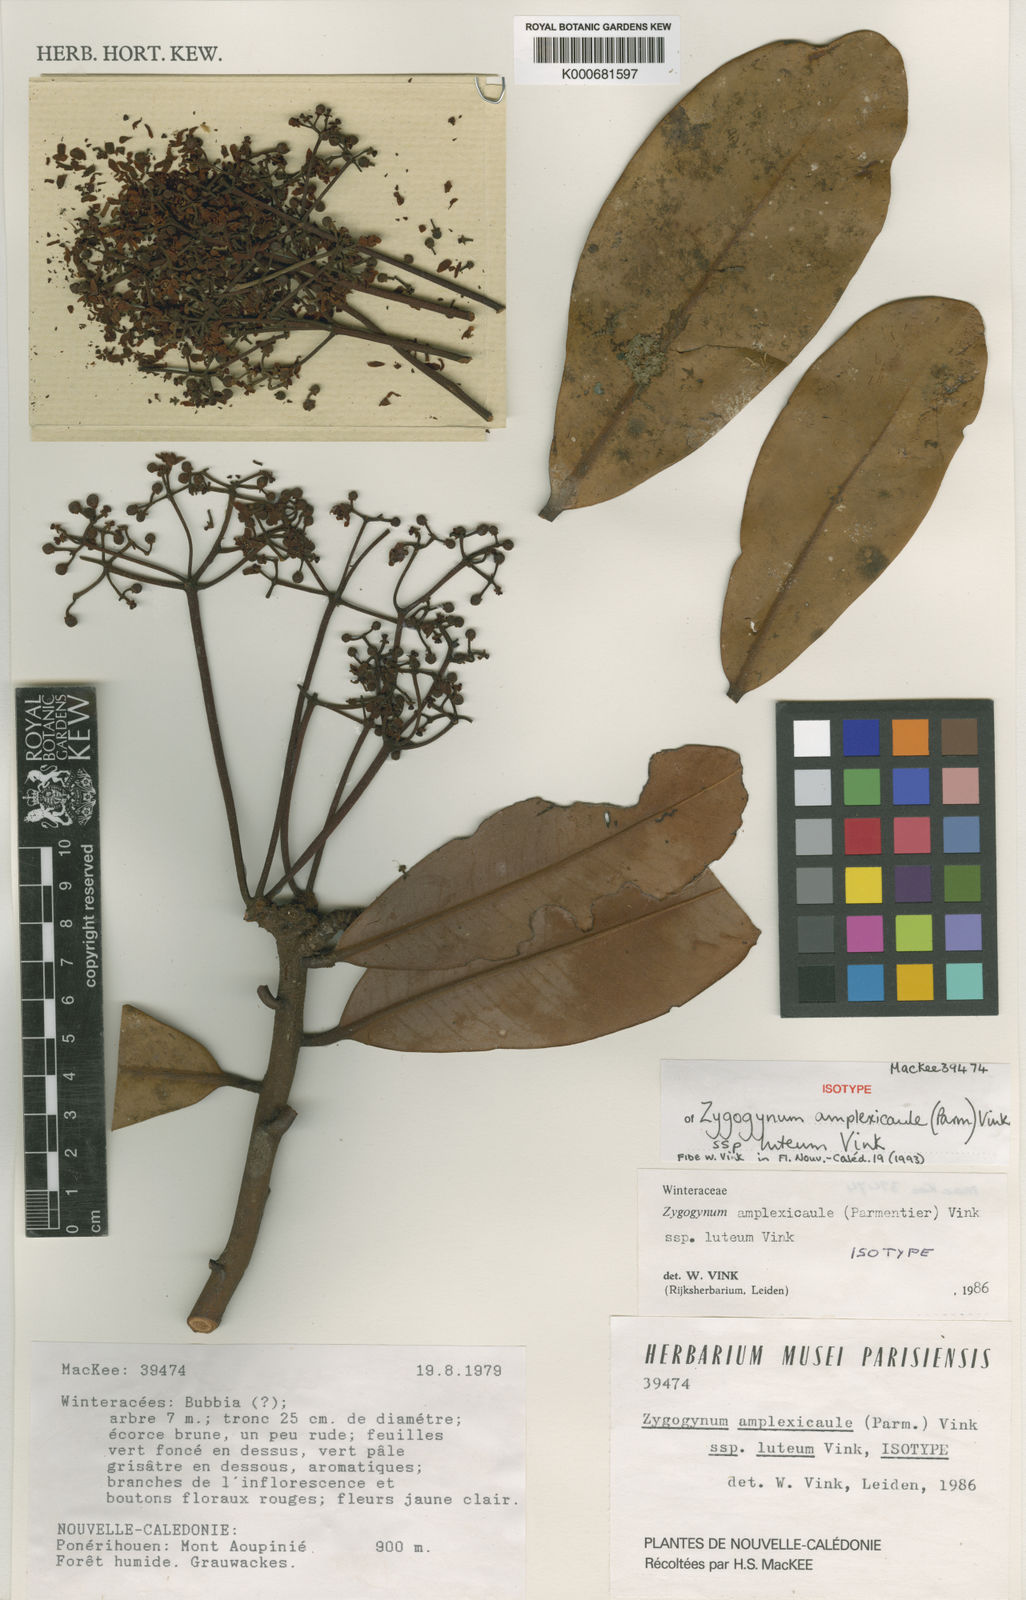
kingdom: Plantae
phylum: Tracheophyta
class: Magnoliopsida
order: Canellales
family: Winteraceae
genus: Zygogynum
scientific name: Zygogynum amplexicaule
